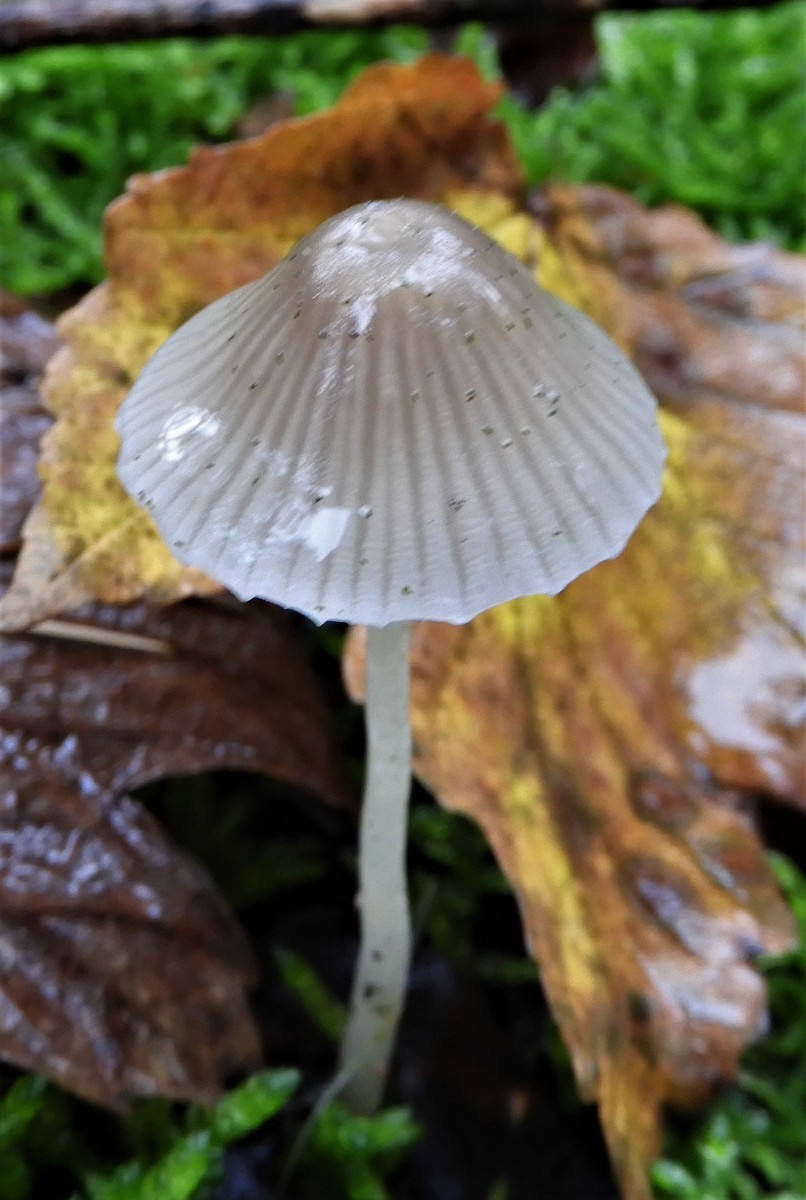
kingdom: Fungi
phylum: Basidiomycota
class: Agaricomycetes
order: Agaricales
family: Mycenaceae
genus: Mycena
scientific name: Mycena vitilis
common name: blankstokket huesvamp
